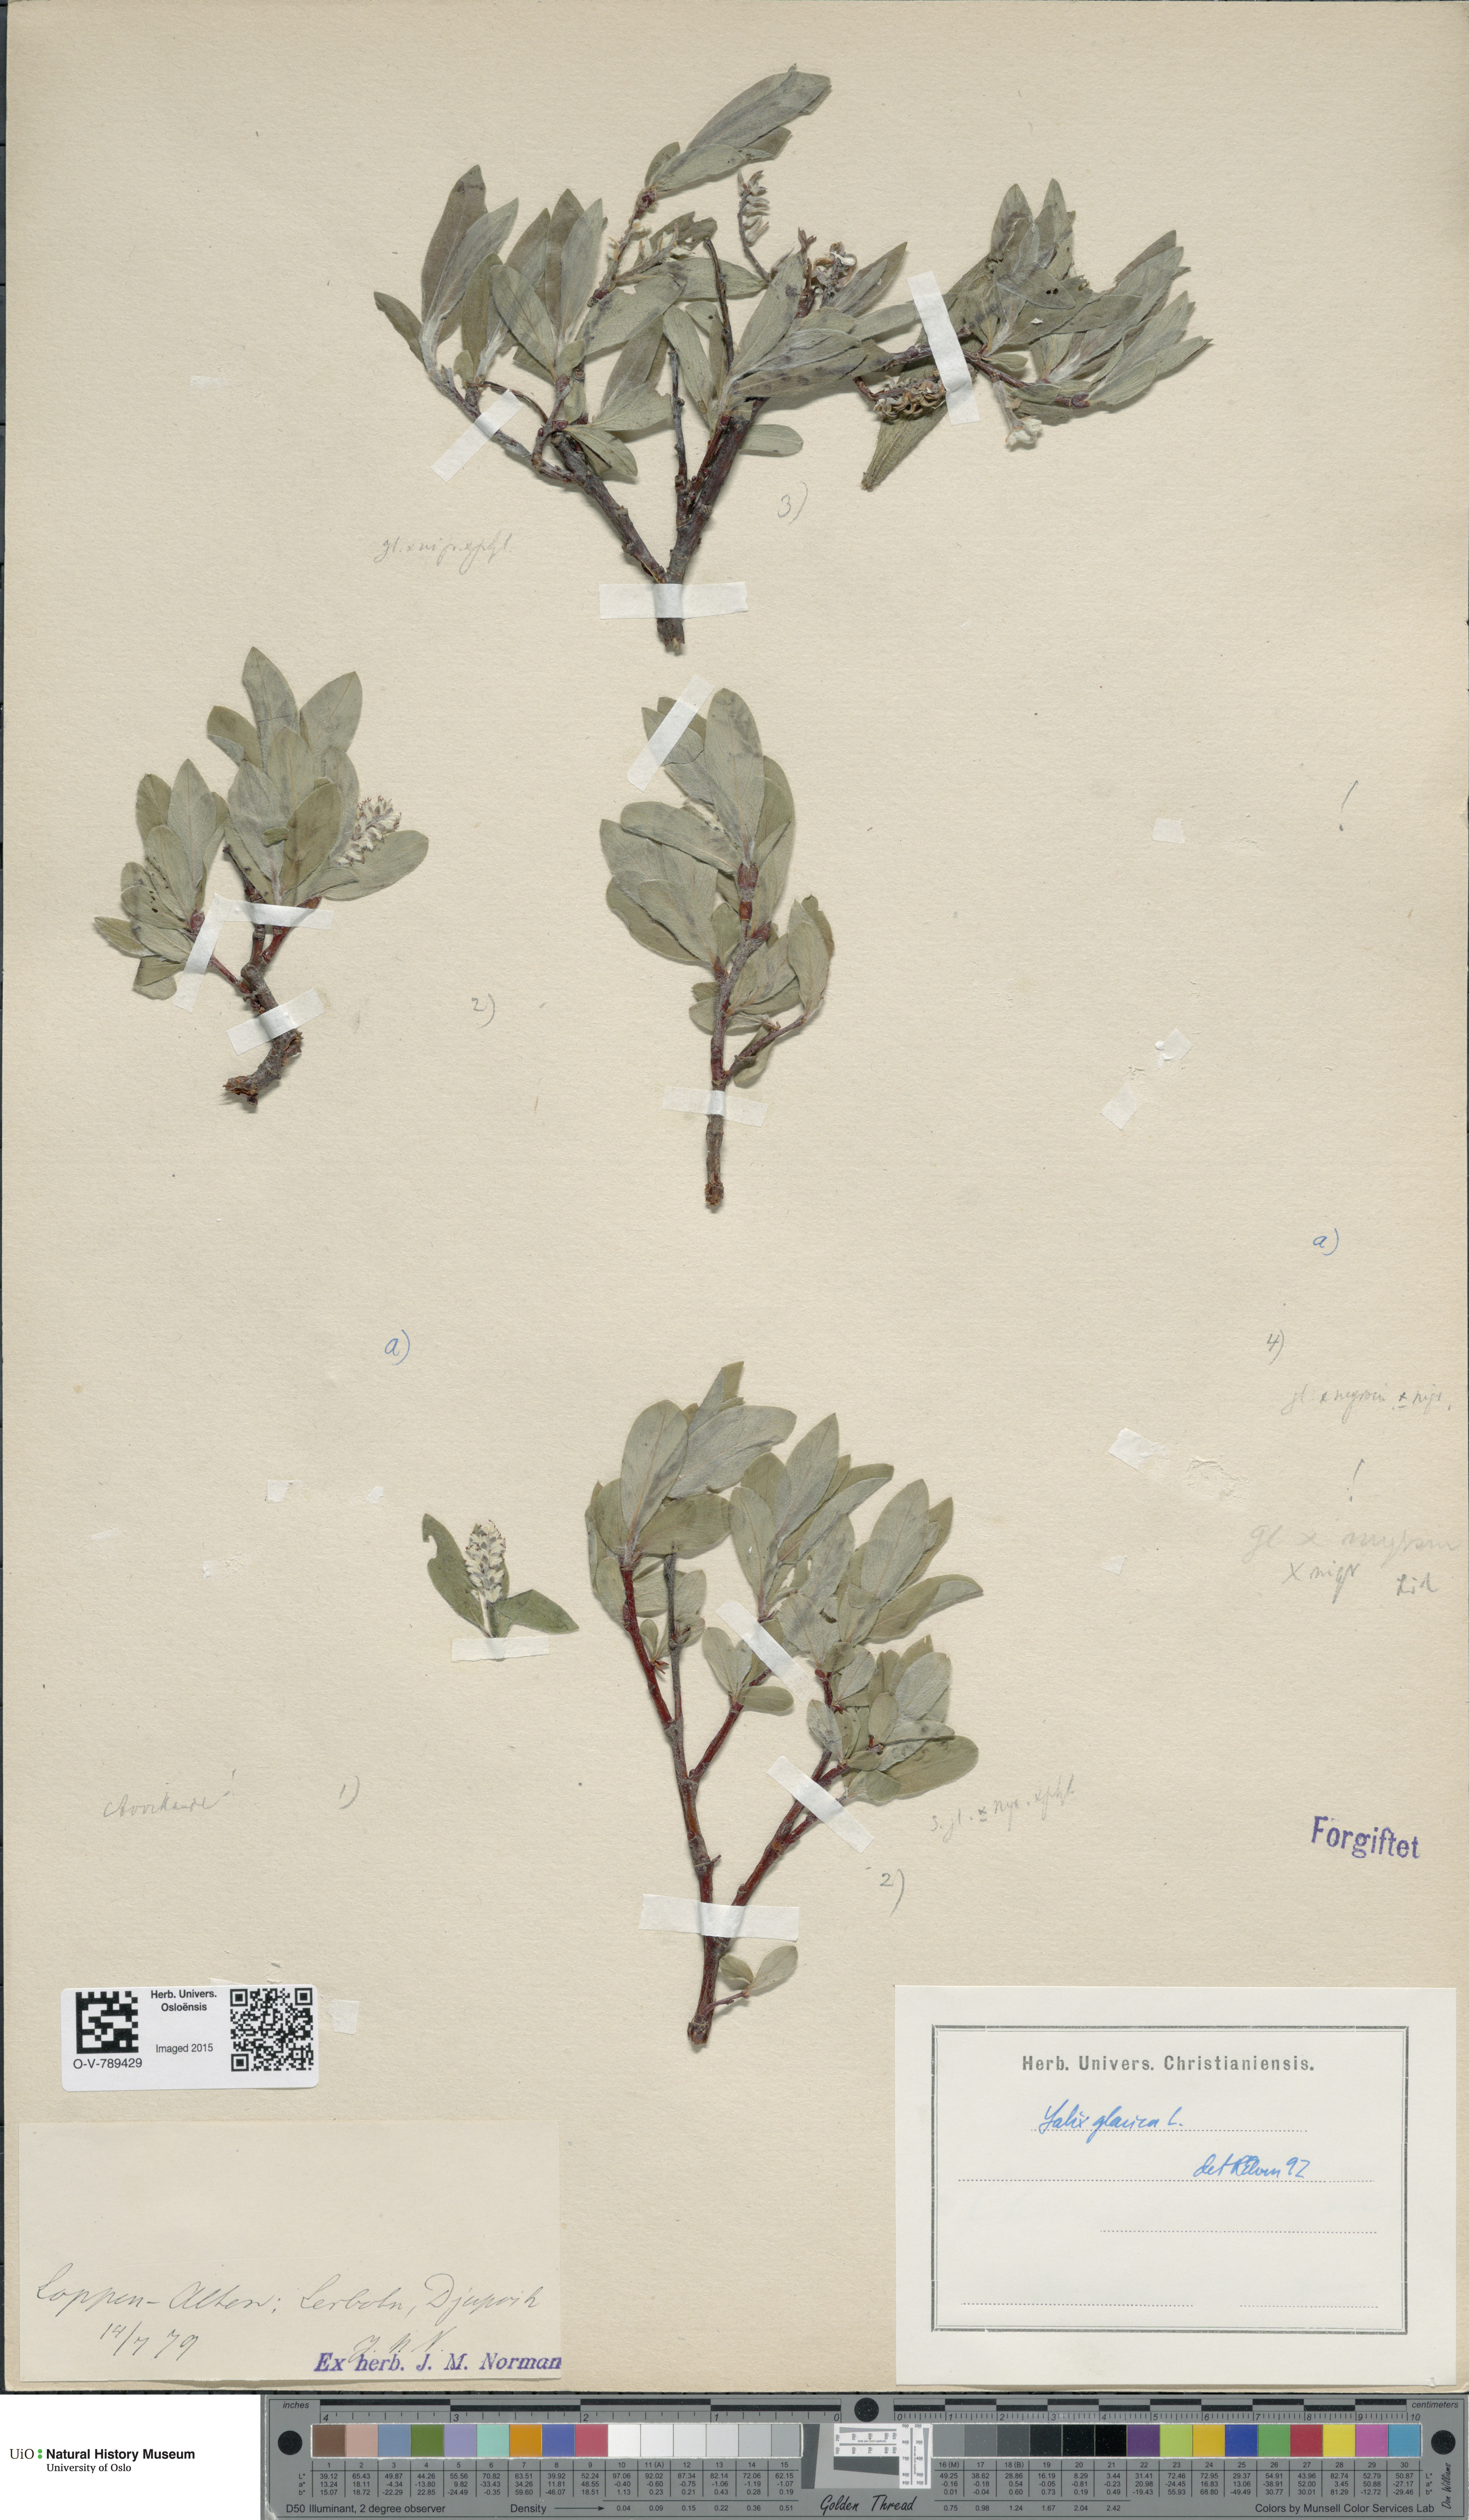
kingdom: Plantae
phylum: Tracheophyta
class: Magnoliopsida
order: Malpighiales
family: Salicaceae
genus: Salix
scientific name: Salix glauca
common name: Glaucous willow
